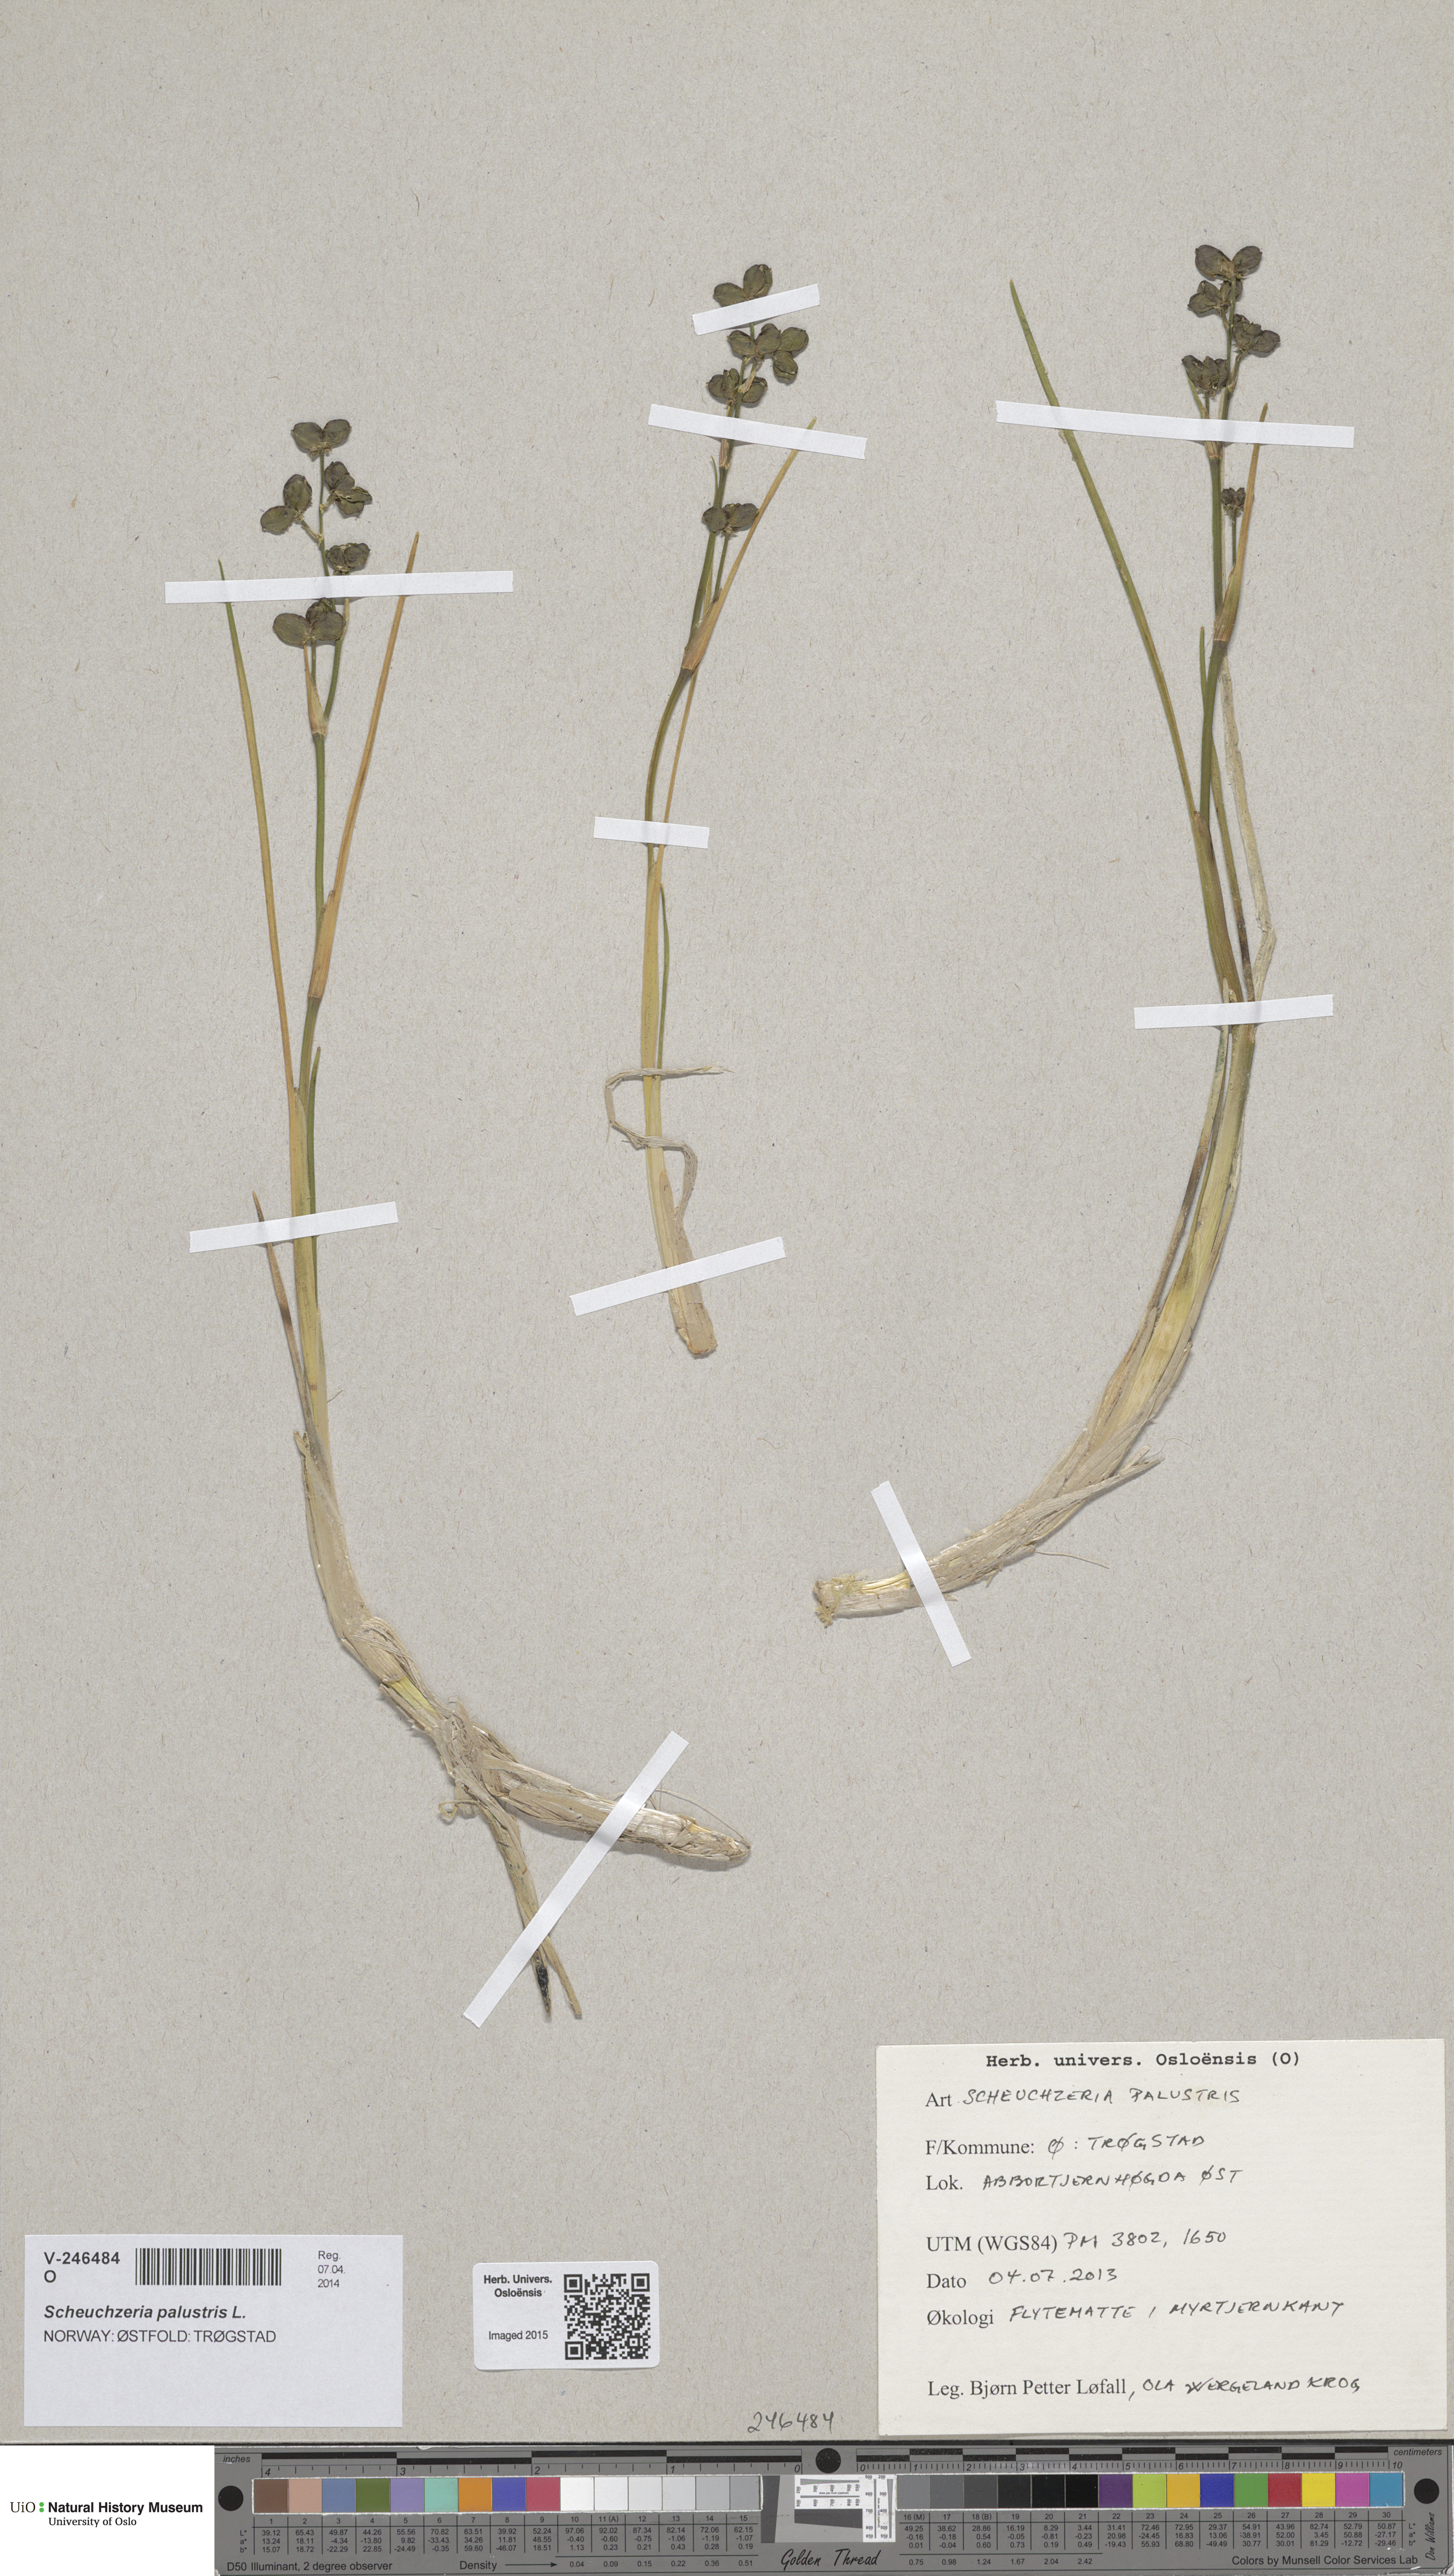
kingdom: Plantae
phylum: Tracheophyta
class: Liliopsida
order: Alismatales
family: Scheuchzeriaceae
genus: Scheuchzeria
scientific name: Scheuchzeria palustris
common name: Rannoch-rush
